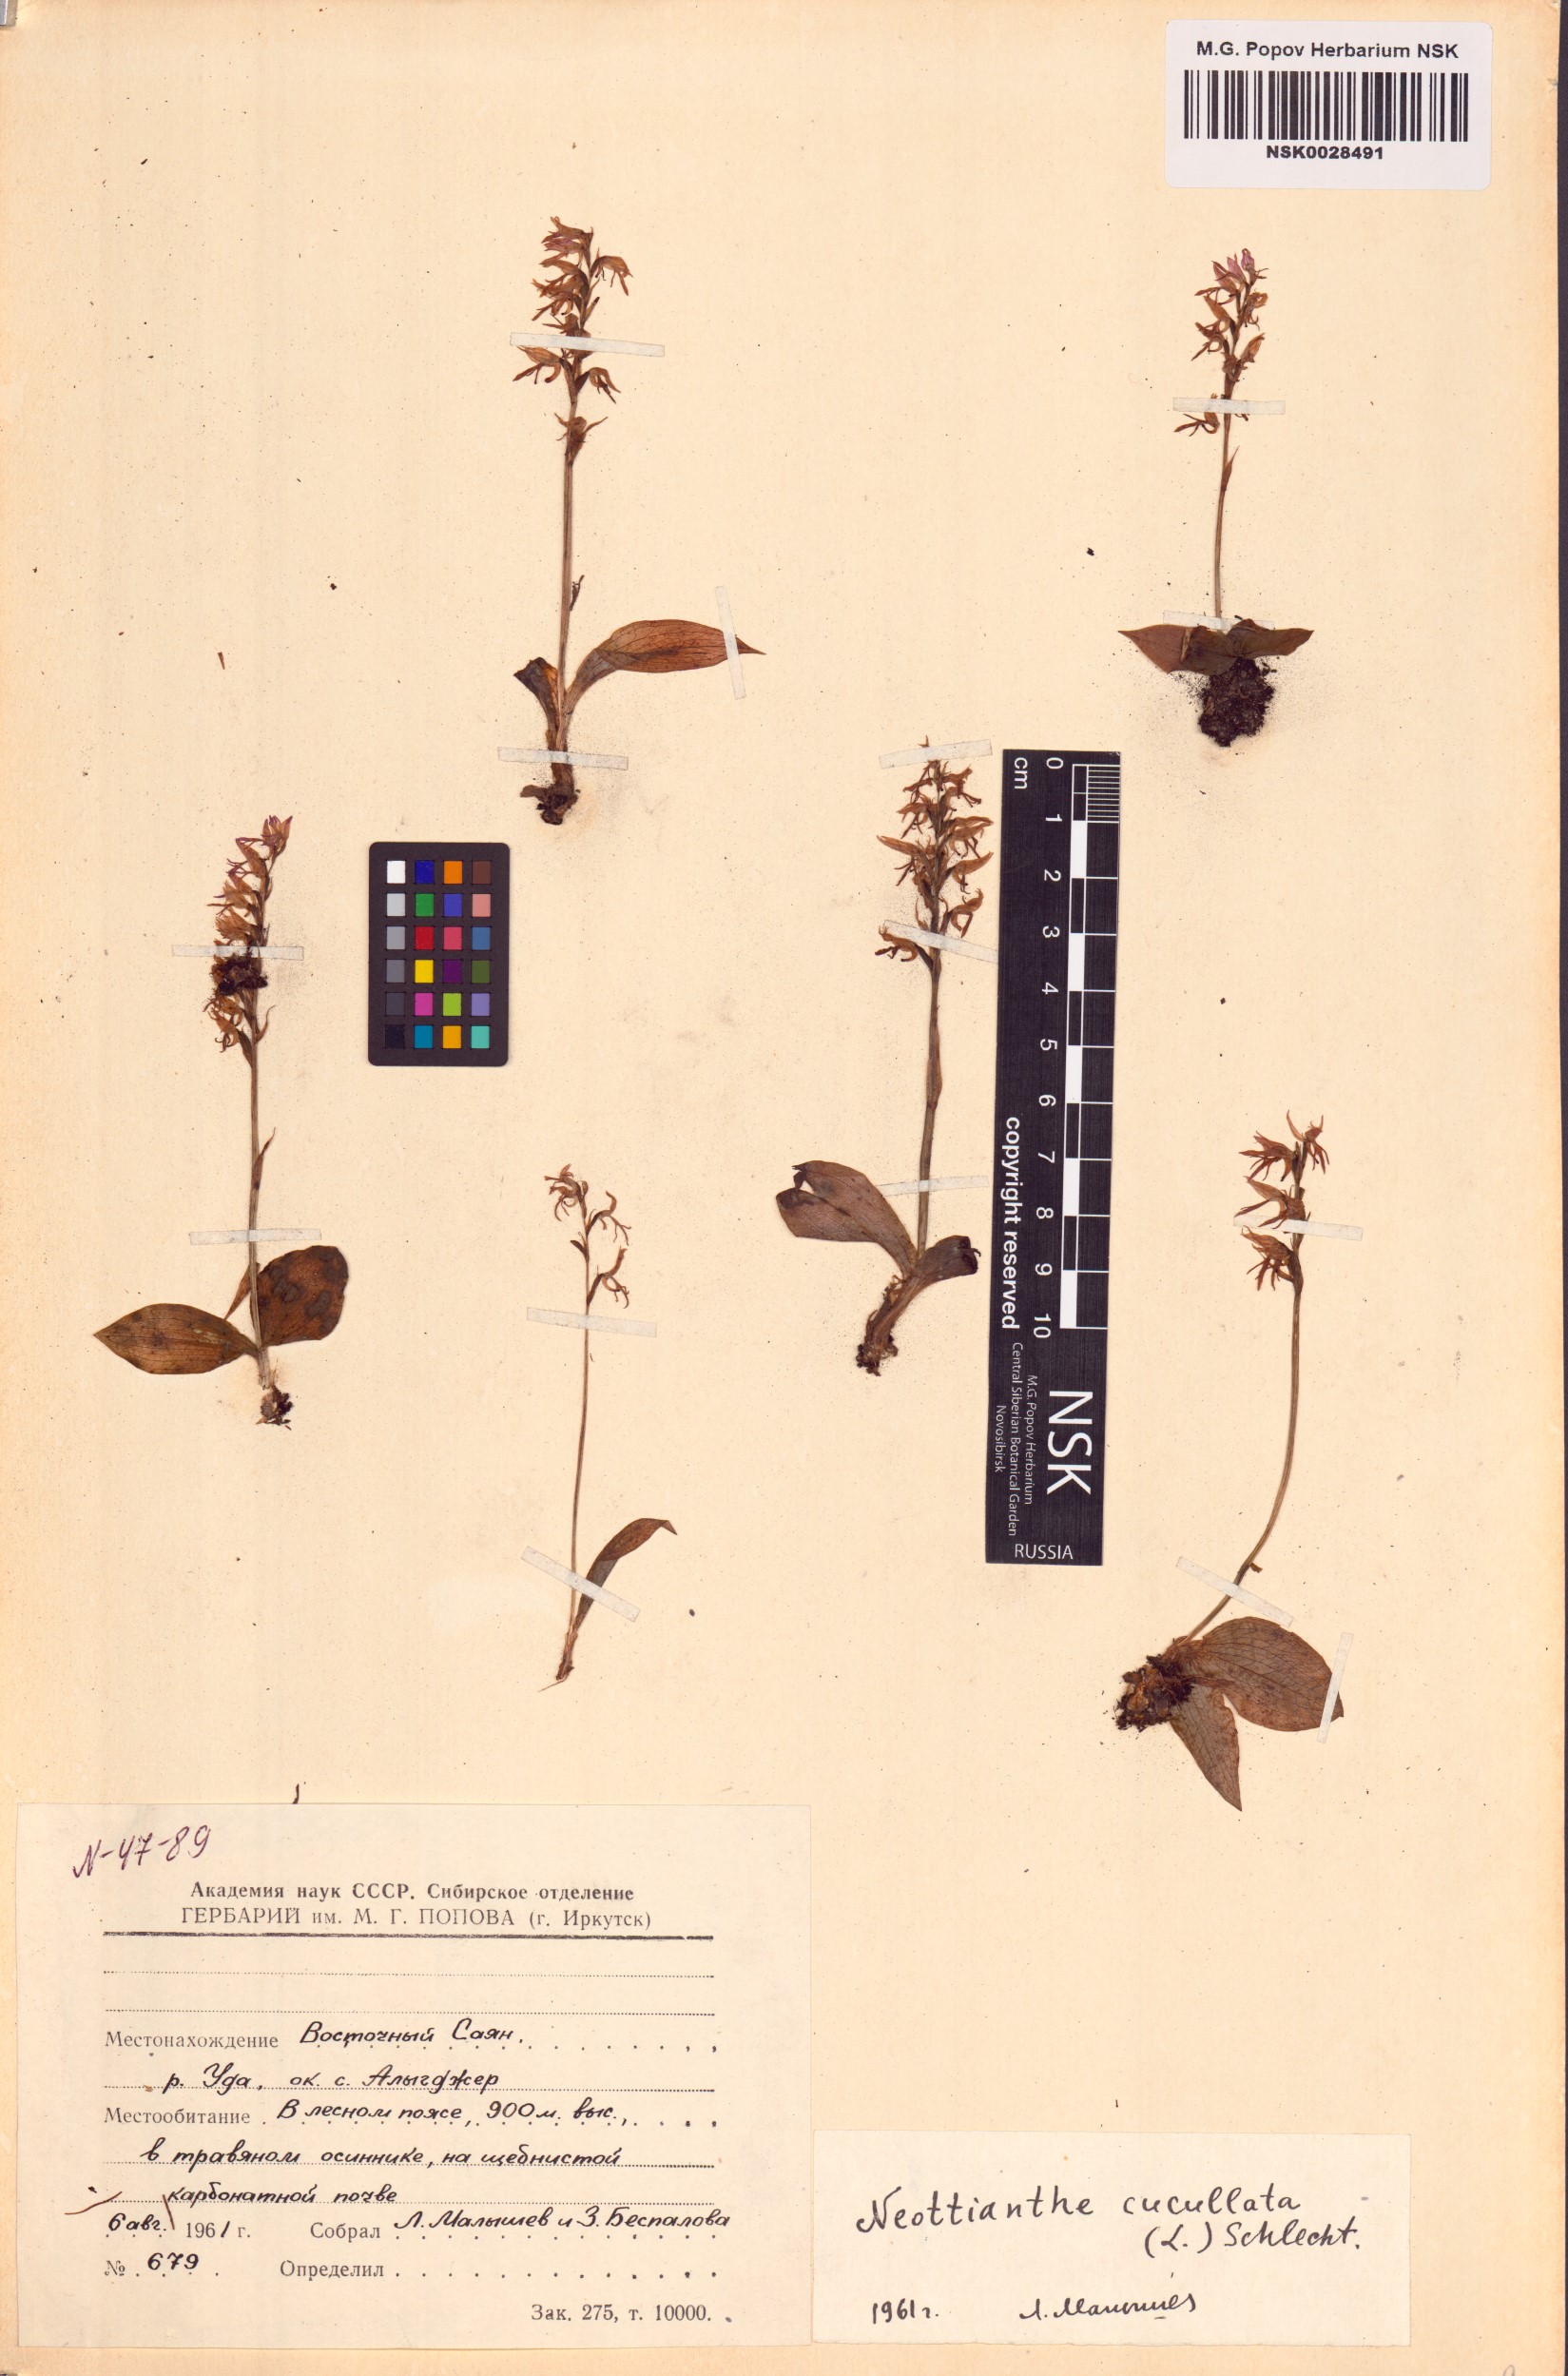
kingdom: Plantae
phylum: Tracheophyta
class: Liliopsida
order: Asparagales
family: Orchidaceae
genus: Hemipilia
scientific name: Hemipilia cucullata
